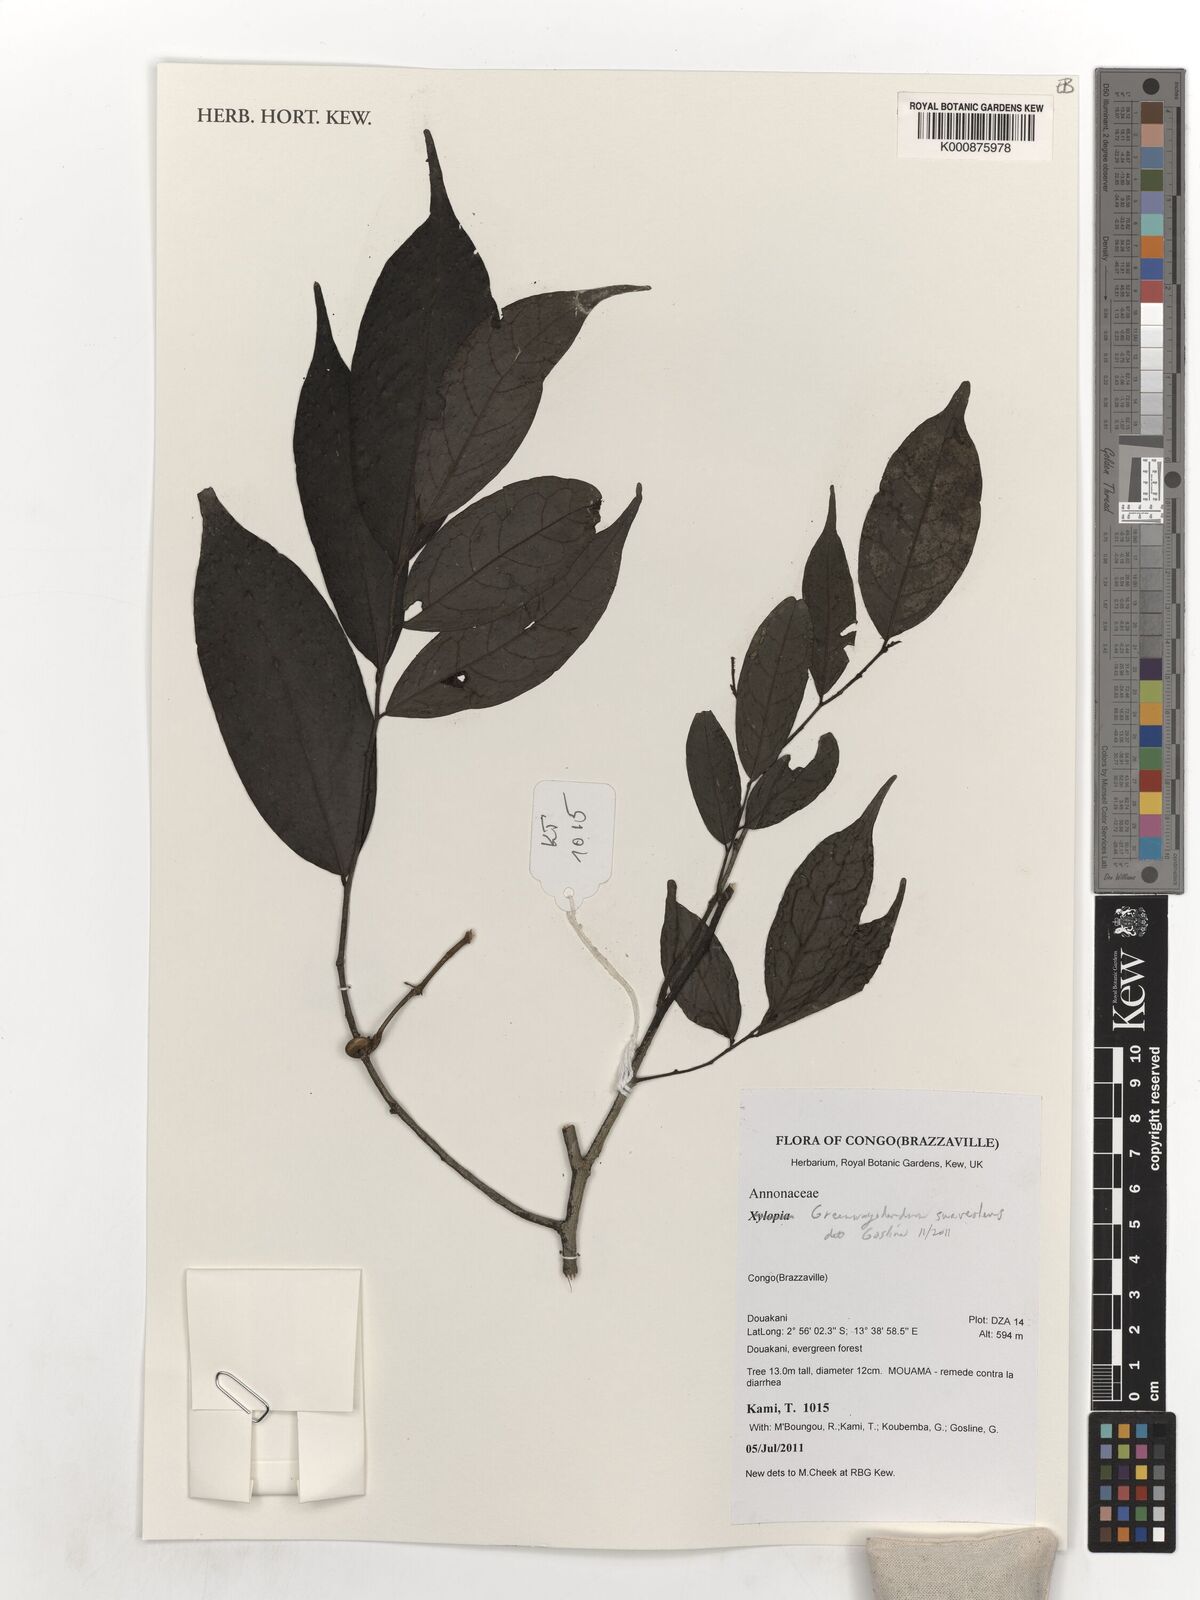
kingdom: Plantae
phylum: Tracheophyta
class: Magnoliopsida
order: Magnoliales
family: Annonaceae
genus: Greenwayodendron
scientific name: Greenwayodendron suaveolens
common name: Molinda
